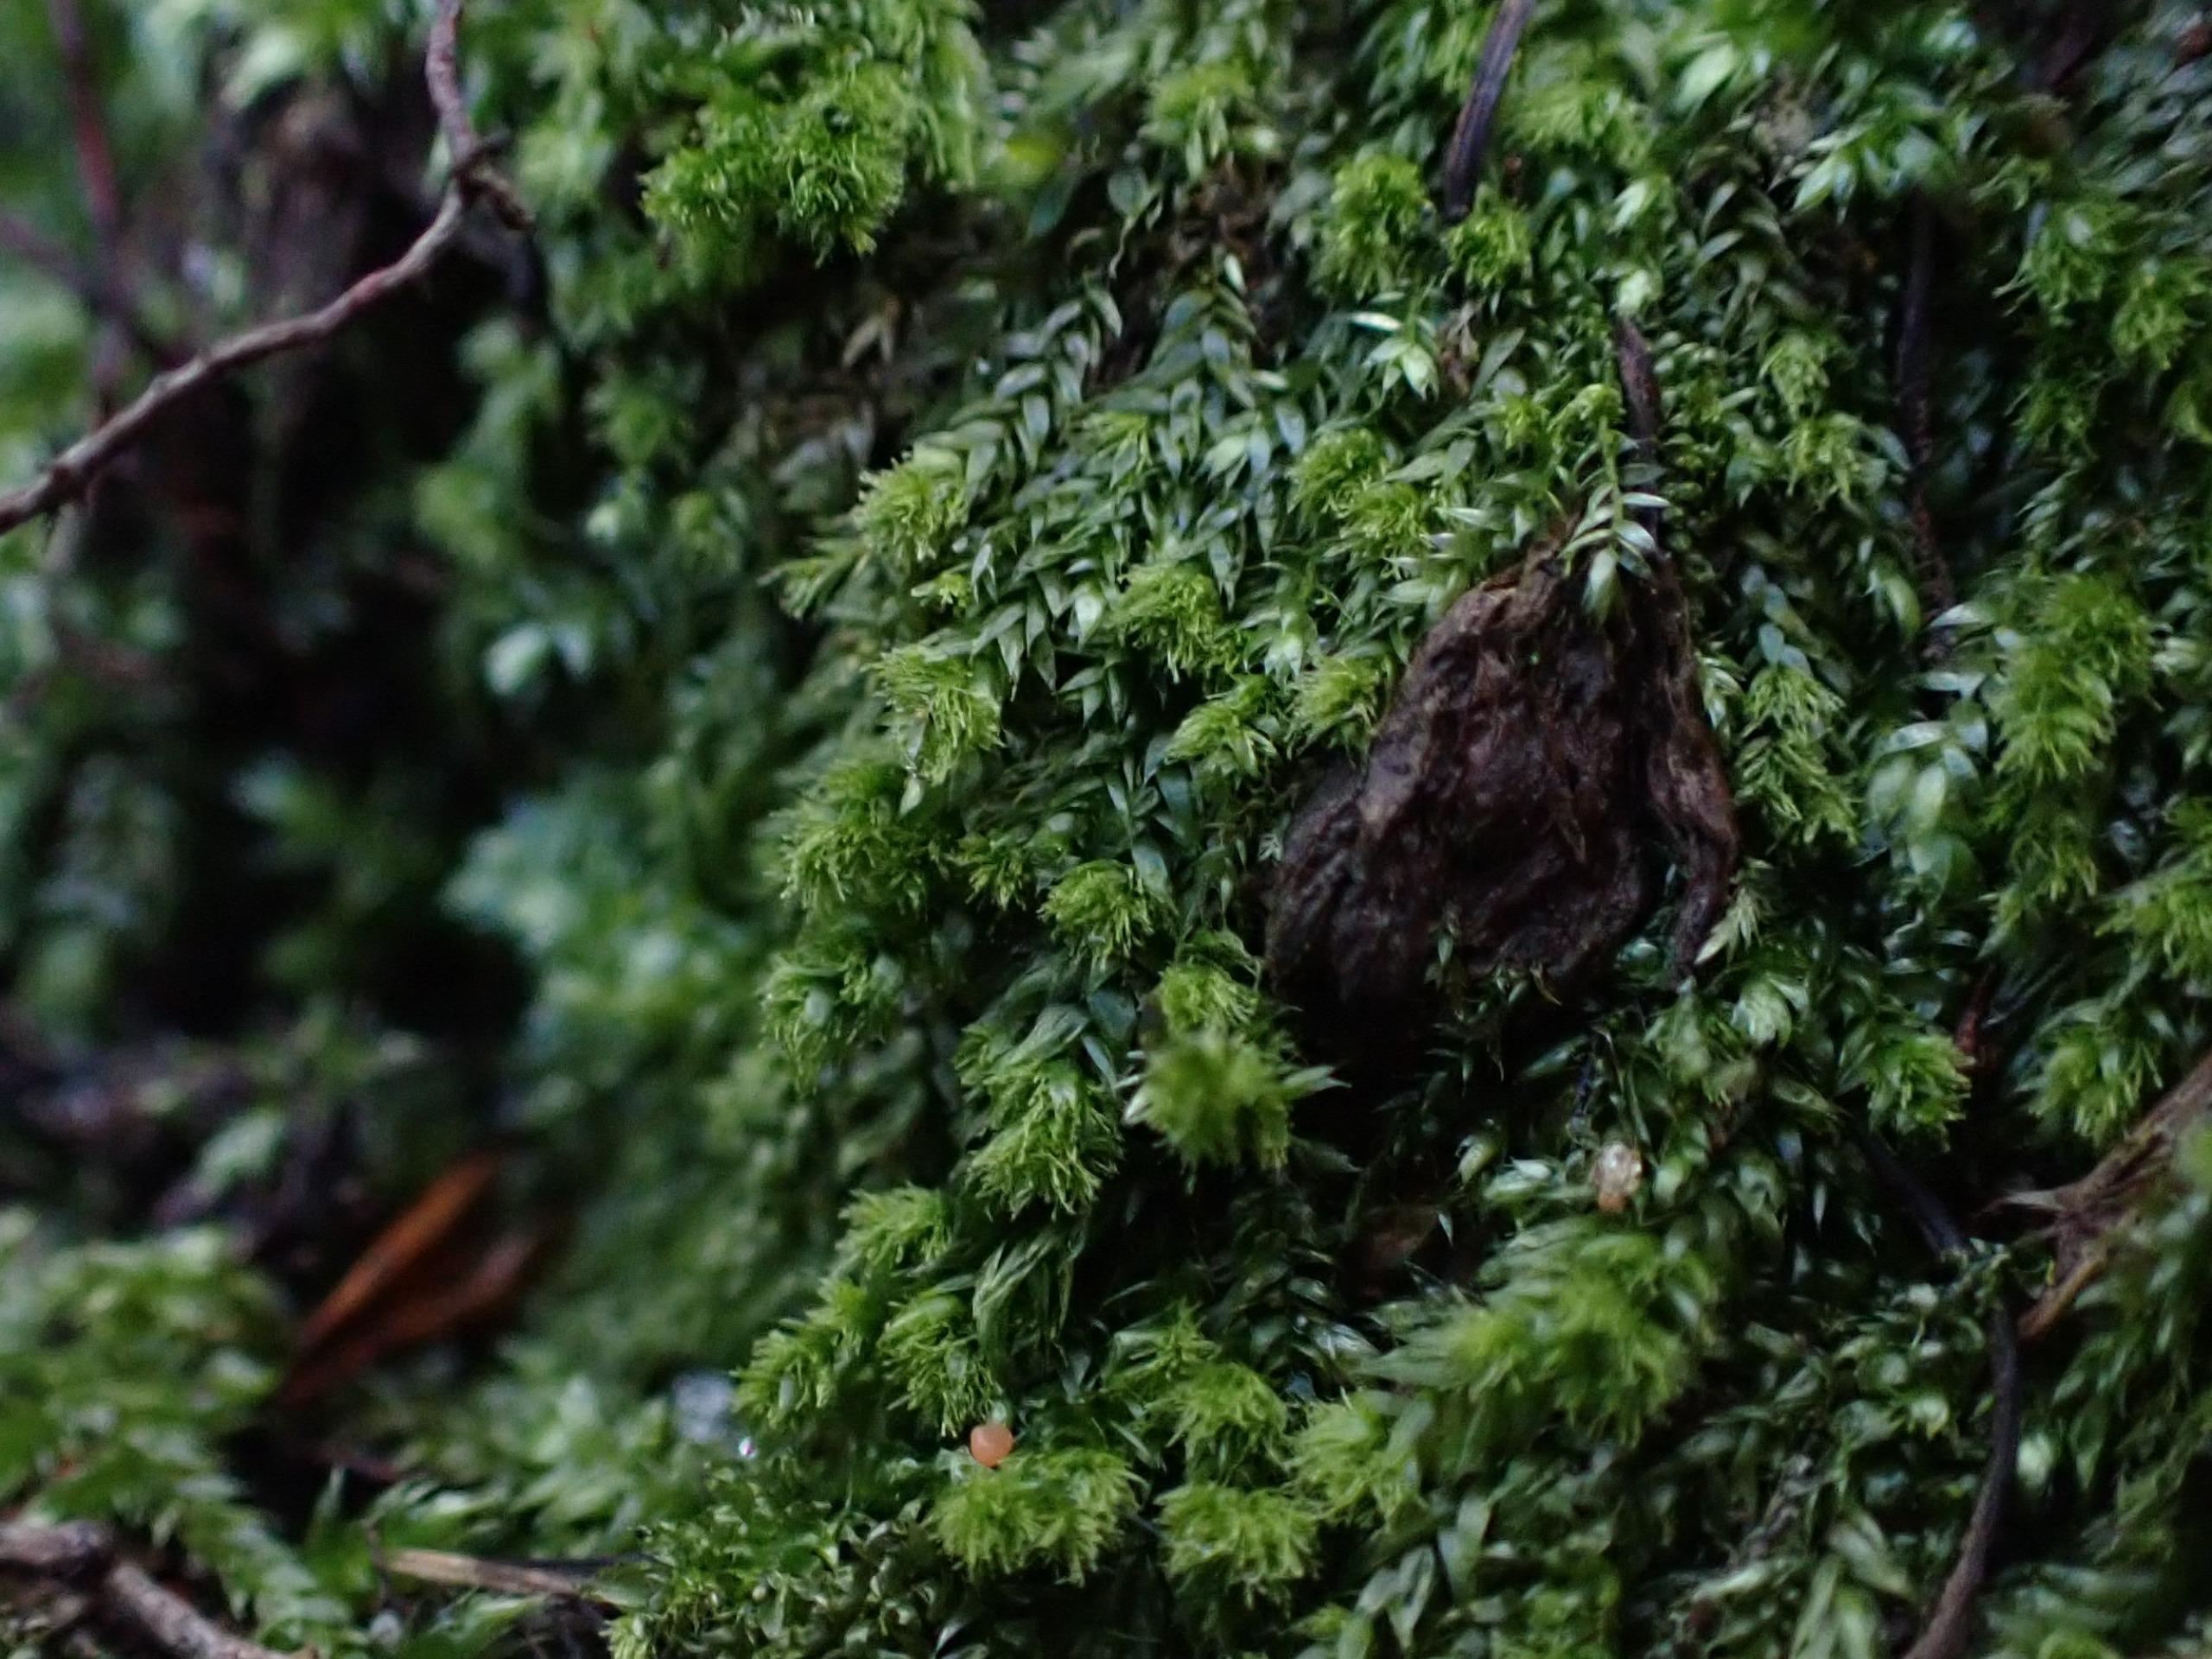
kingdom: Plantae
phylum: Bryophyta
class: Bryopsida
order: Hypnales
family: Plagiotheciaceae
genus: Pseudotaxiphyllum
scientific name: Pseudotaxiphyllum elegans
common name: Skinnende ynglegren
